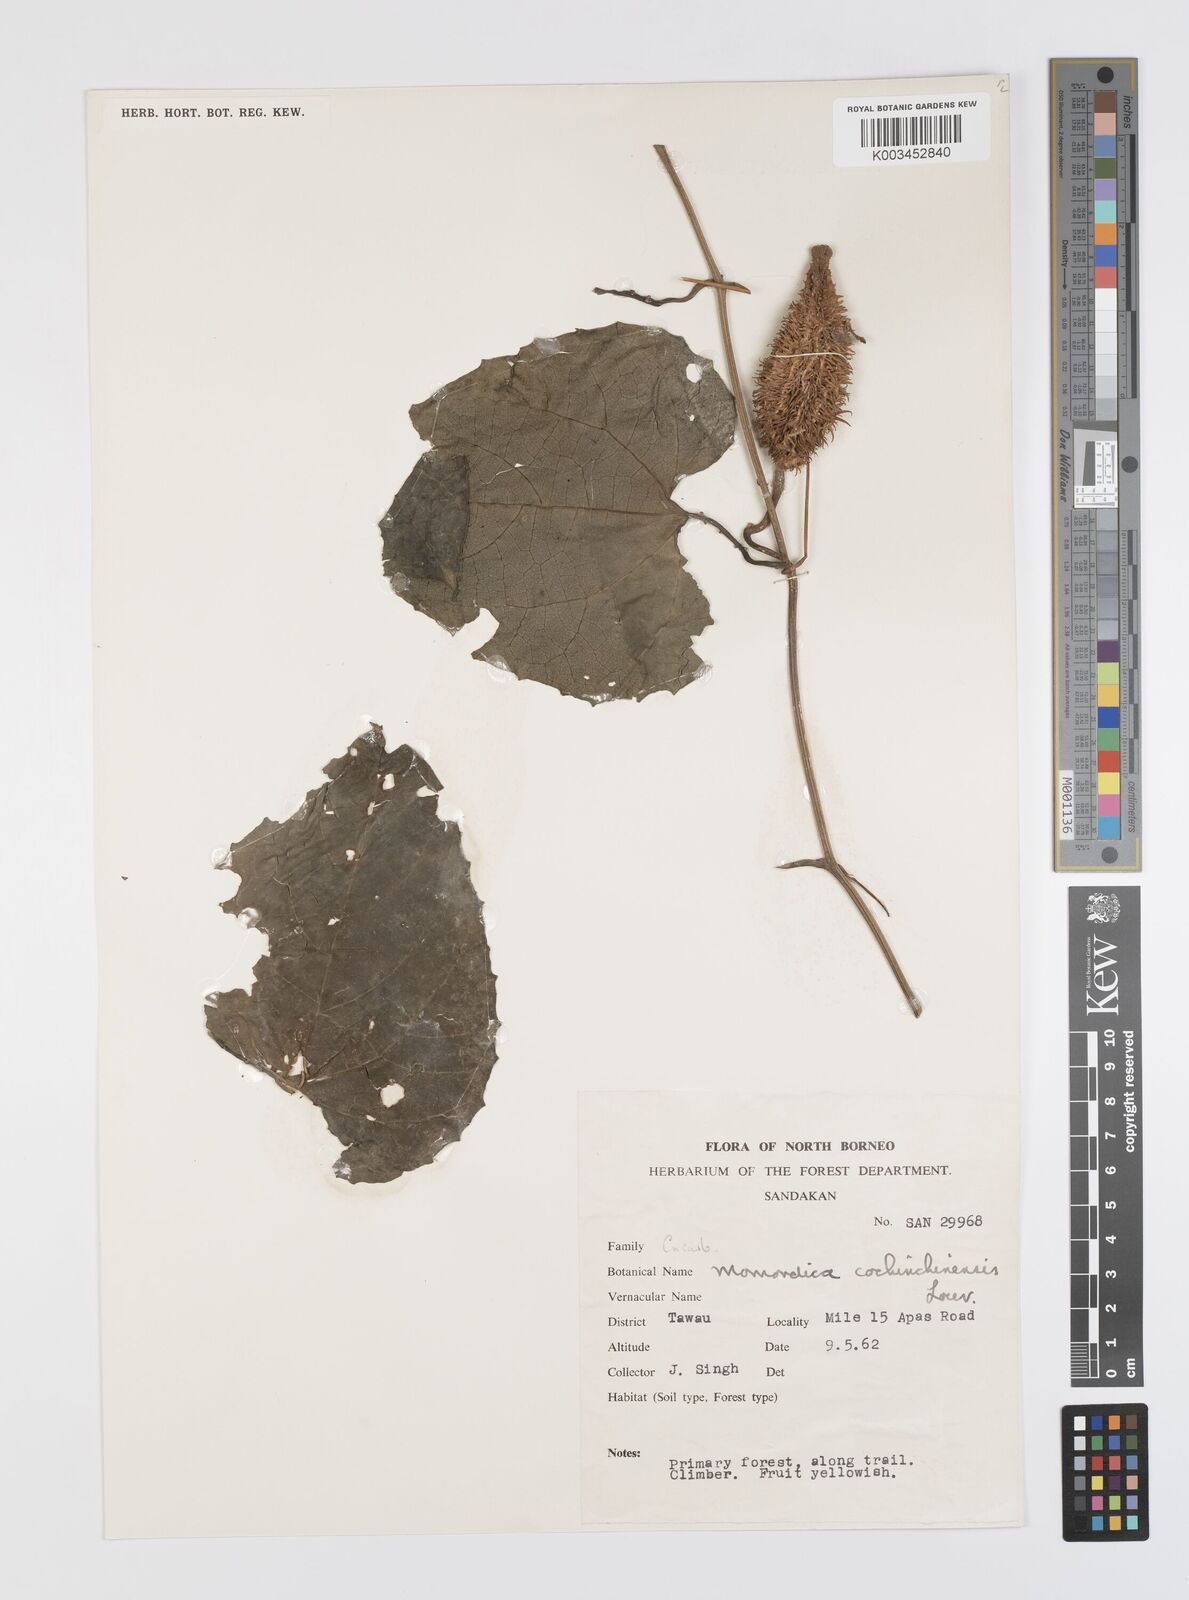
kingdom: Plantae
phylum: Tracheophyta
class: Magnoliopsida
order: Cucurbitales
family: Cucurbitaceae
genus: Momordica
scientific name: Momordica cochinchinensis
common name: Chinese bitter-cucumber
